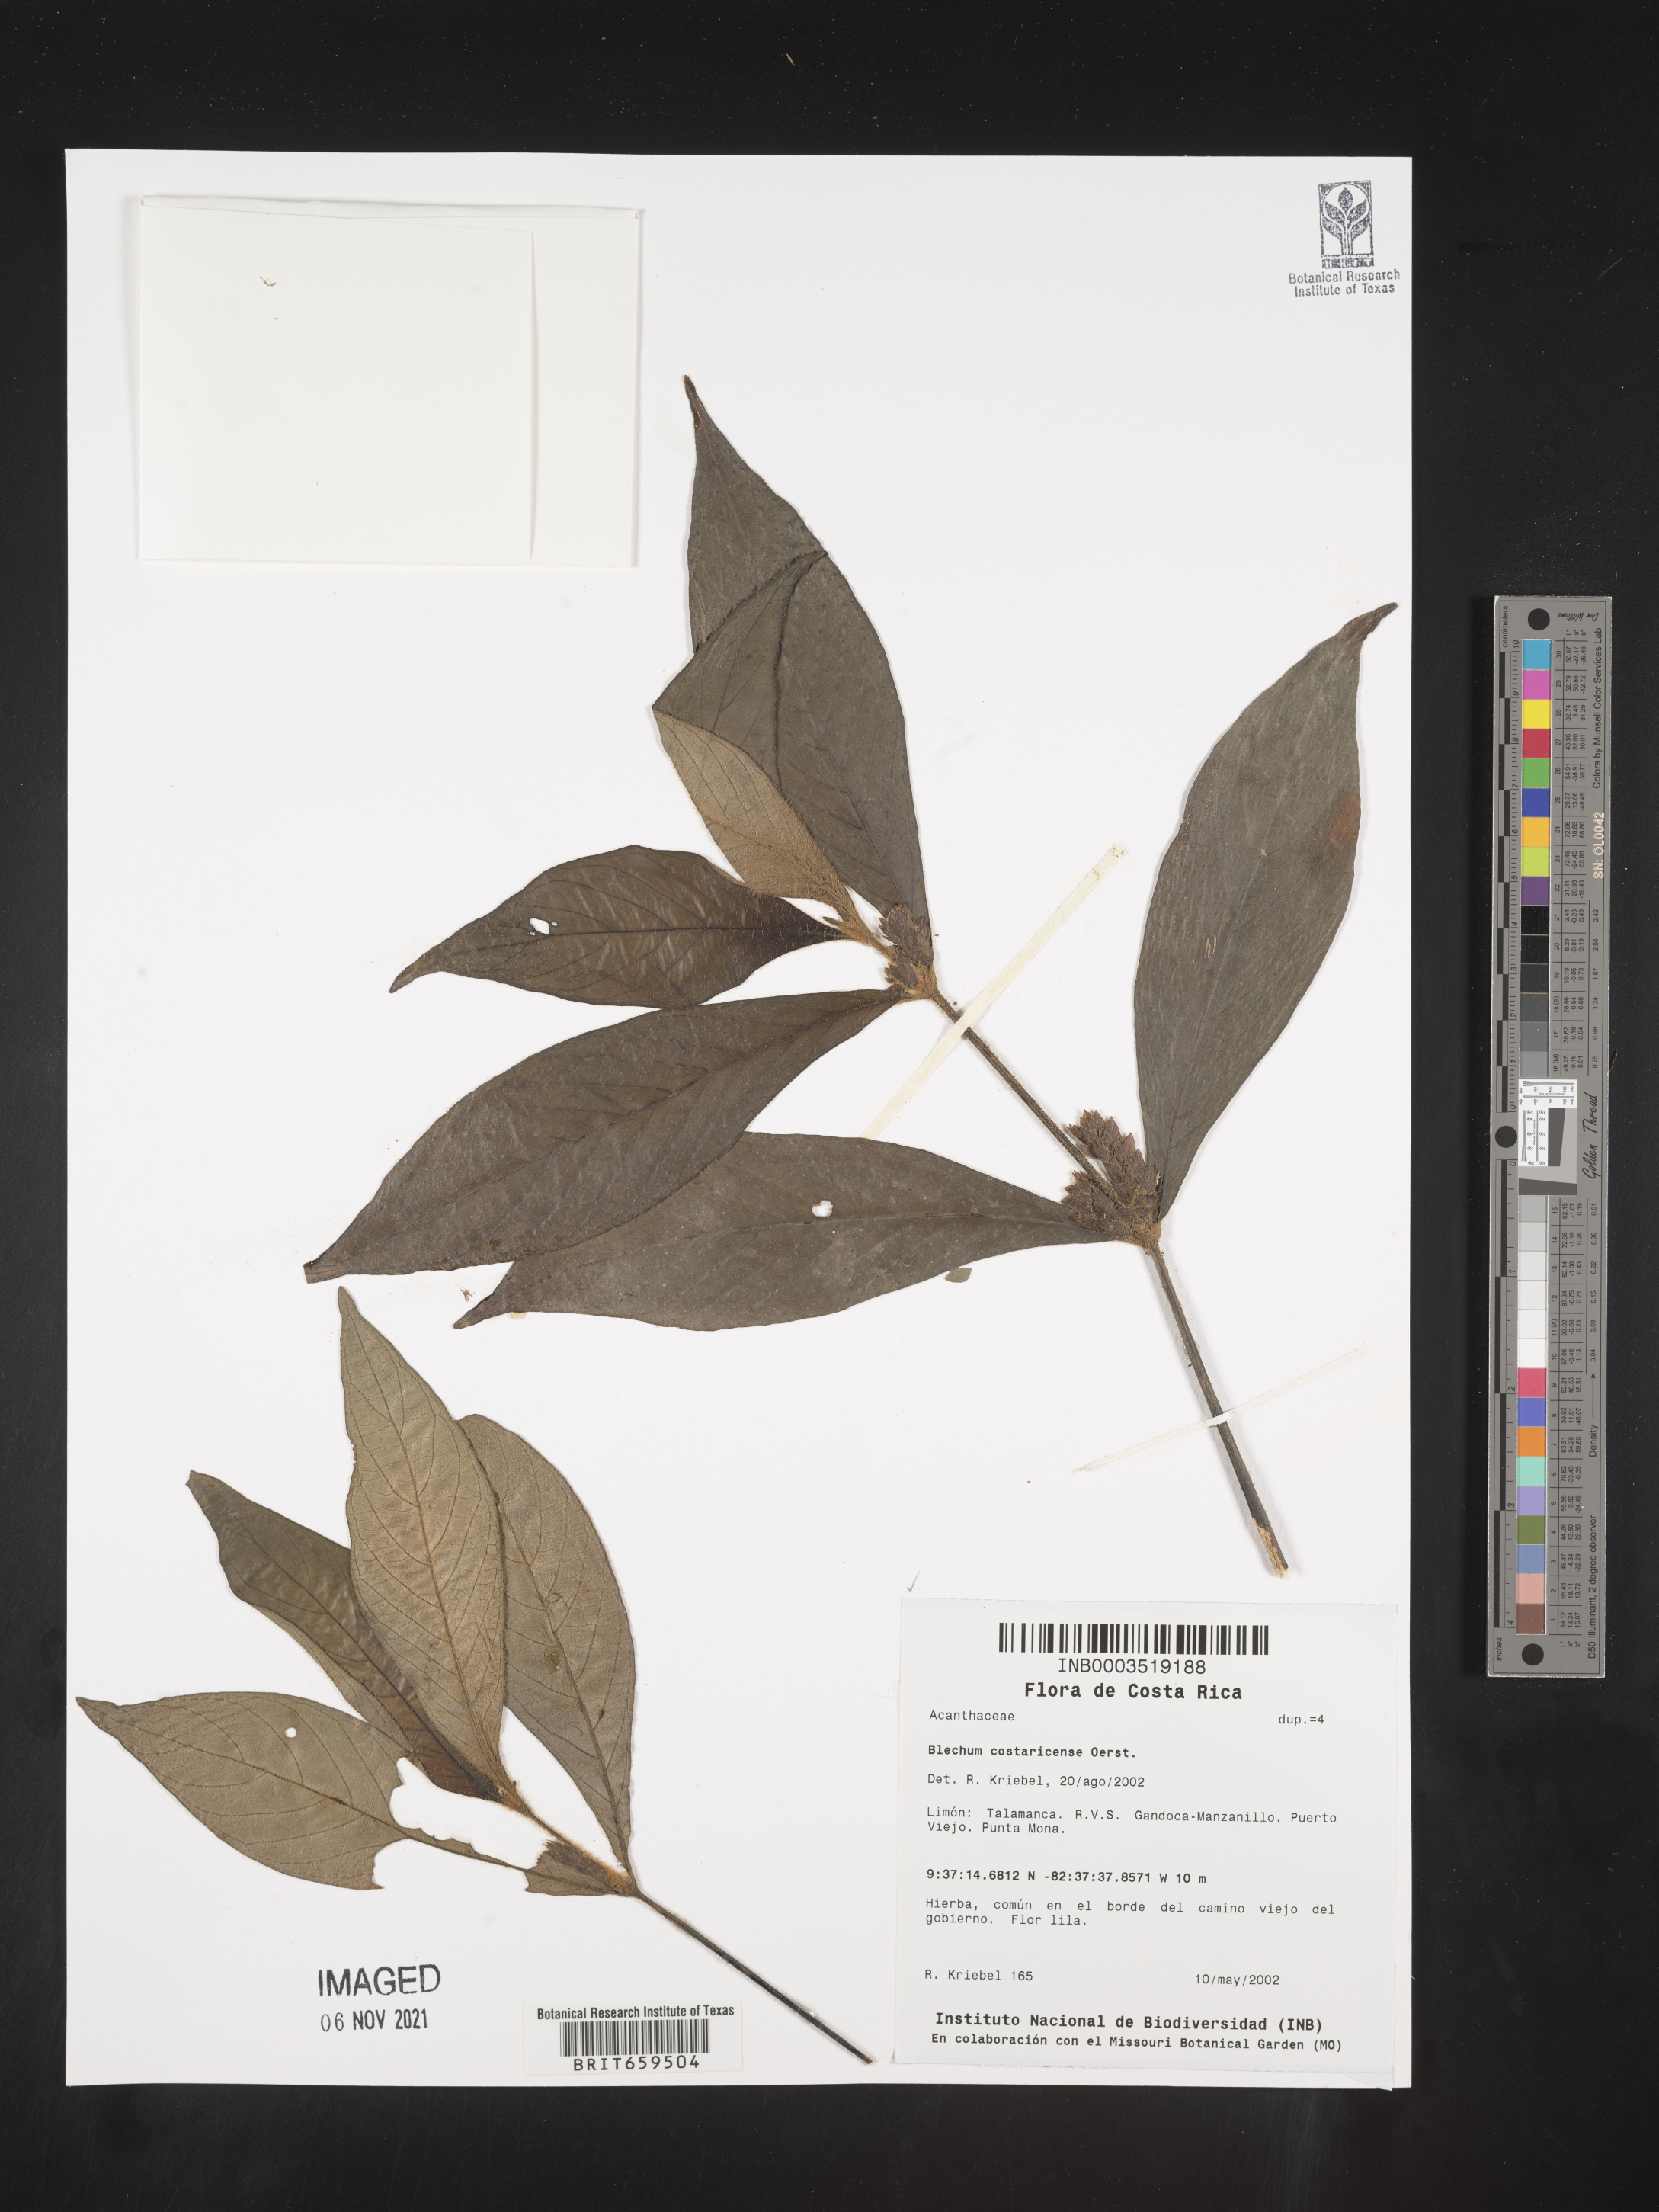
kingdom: Plantae
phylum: Tracheophyta
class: Polypodiopsida
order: Polypodiales
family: Blechnaceae
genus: Blechum
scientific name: Blechum
